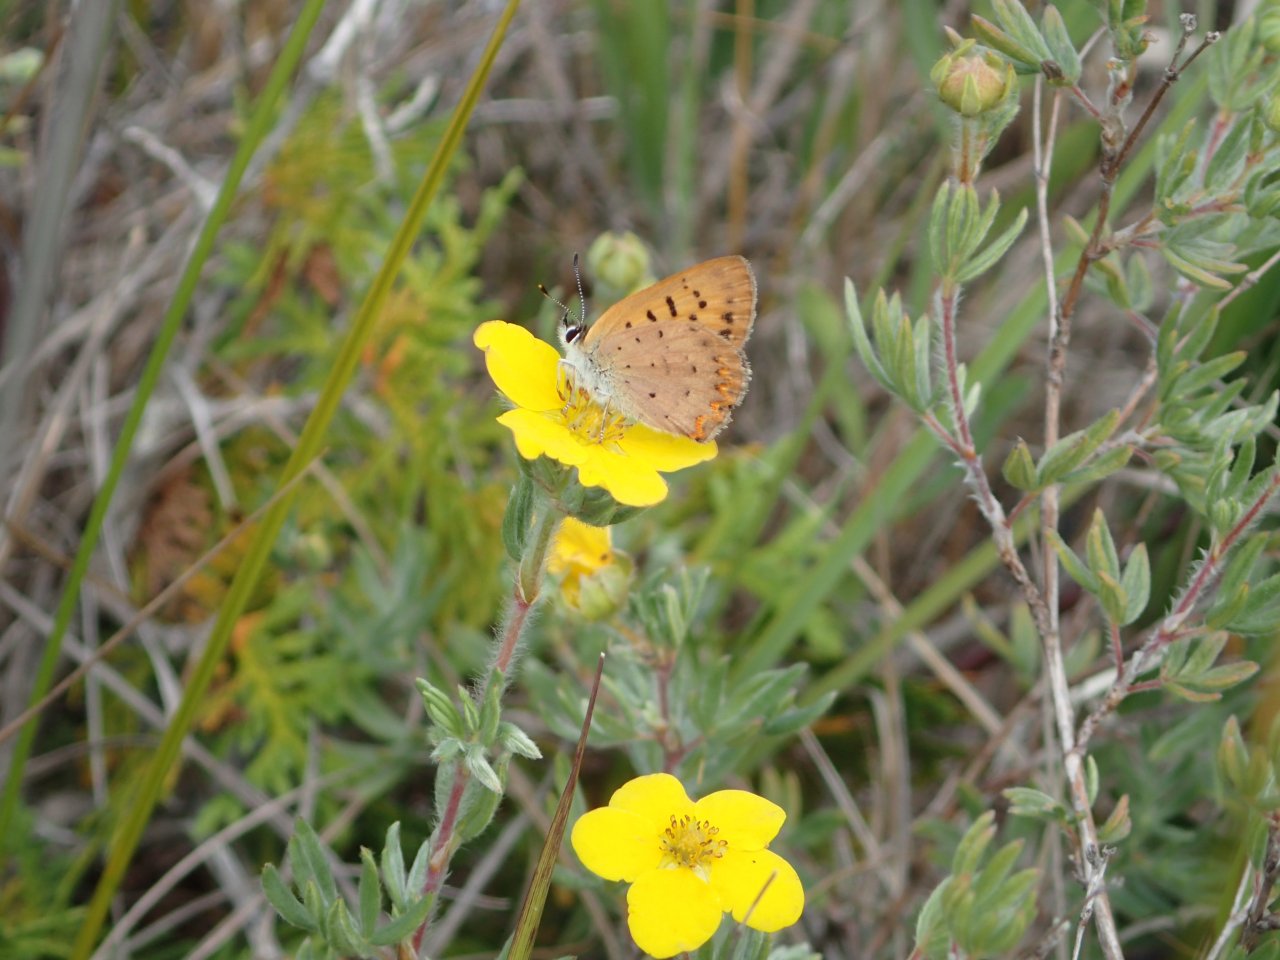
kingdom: Animalia
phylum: Arthropoda
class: Insecta
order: Lepidoptera
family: Lycaenidae
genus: Epidemia
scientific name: Epidemia dorcas
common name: Dorcas Copper
